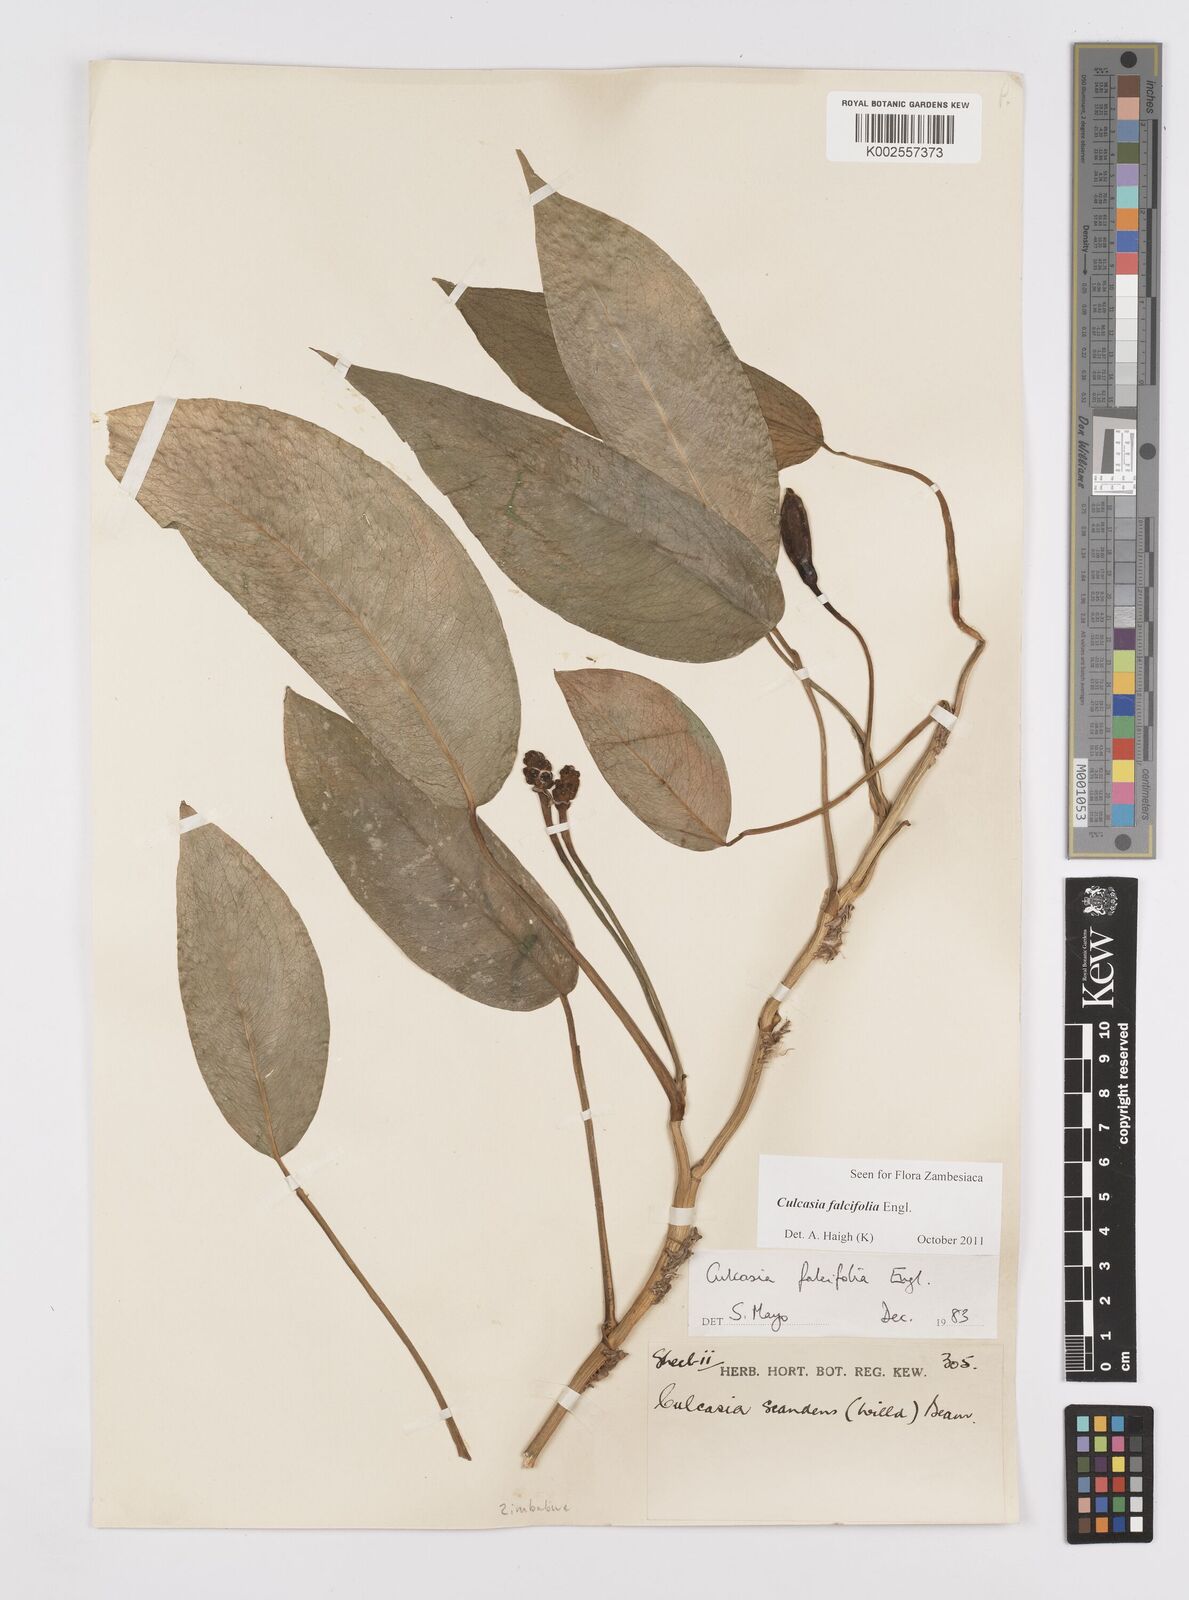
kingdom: Plantae
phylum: Tracheophyta
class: Liliopsida
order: Alismatales
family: Araceae
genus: Culcasia
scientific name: Culcasia falcifolia
